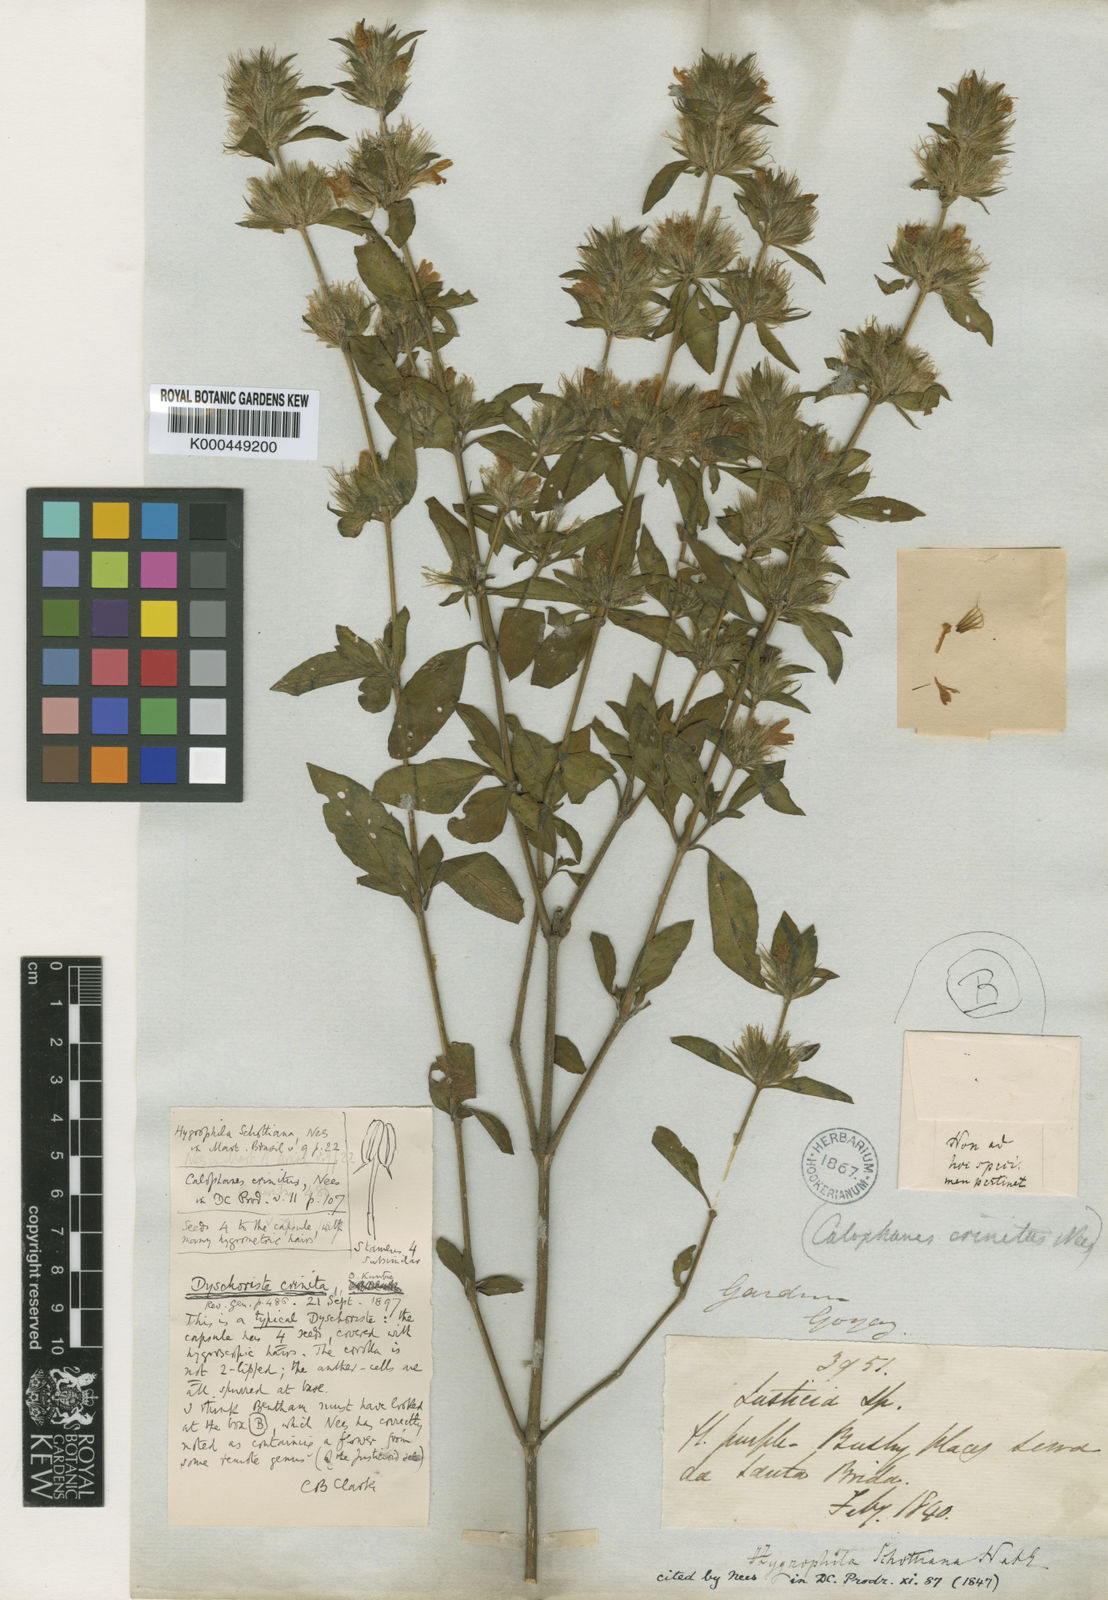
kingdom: Plantae
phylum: Tracheophyta
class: Magnoliopsida
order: Lamiales
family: Acanthaceae
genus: Dyschoriste
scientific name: Dyschoriste schottiana
